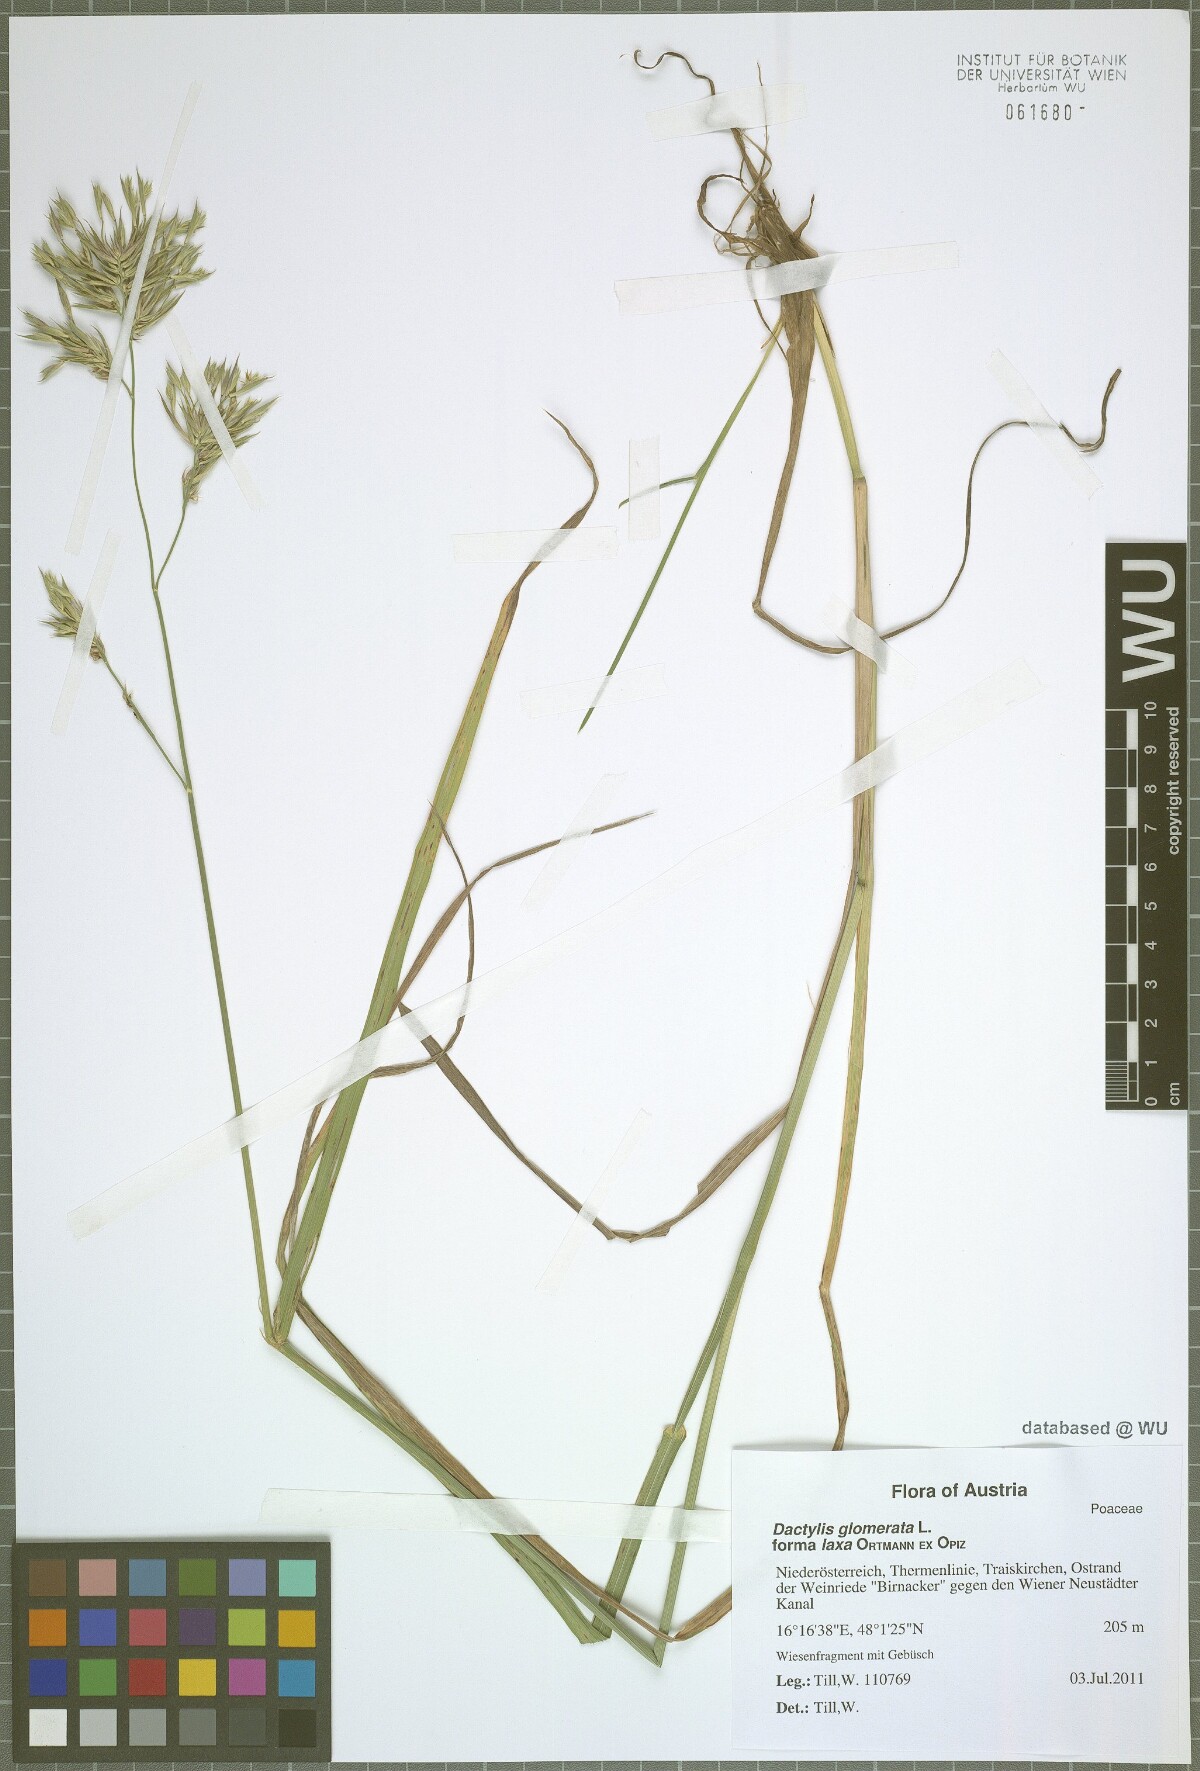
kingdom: Plantae
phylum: Tracheophyta
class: Liliopsida
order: Poales
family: Poaceae
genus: Dactylis
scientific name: Dactylis glomerata
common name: Orchardgrass
